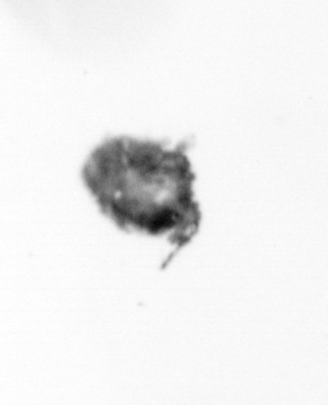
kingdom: Animalia
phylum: Arthropoda
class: Copepoda
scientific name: Copepoda
